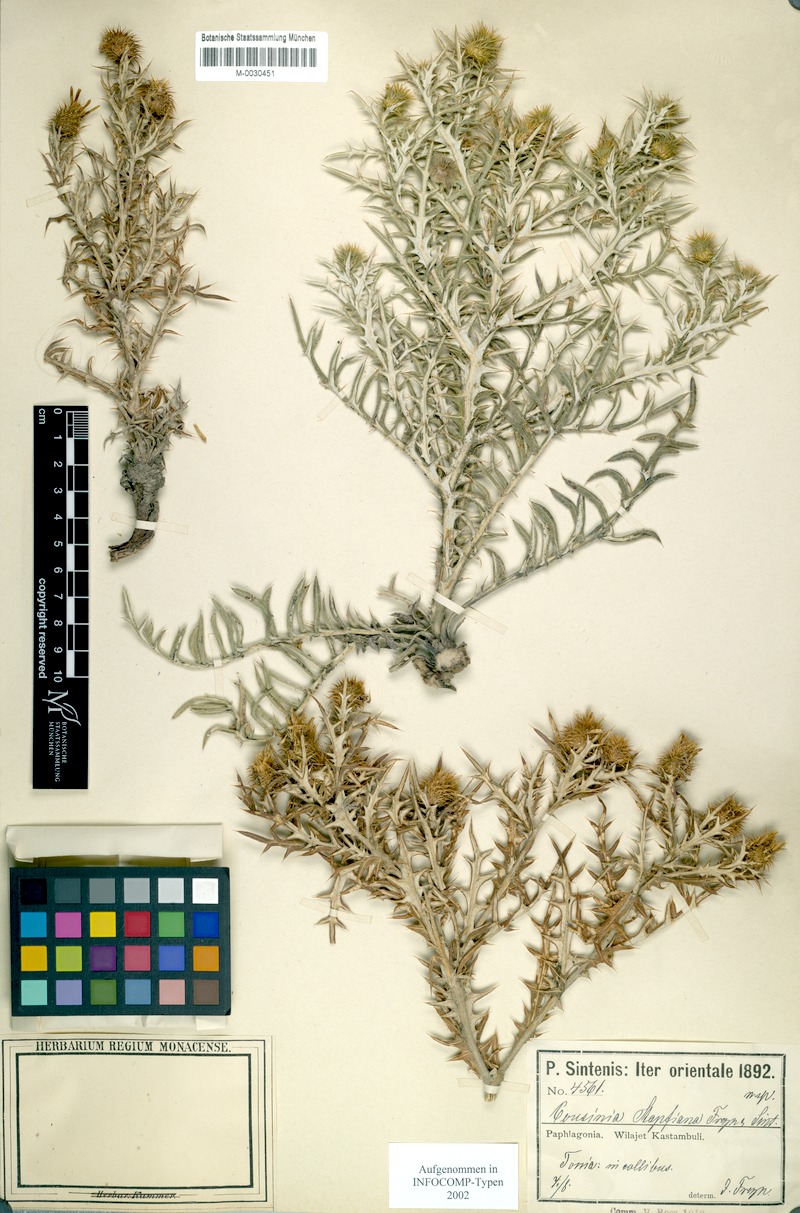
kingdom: Plantae
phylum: Tracheophyta
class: Magnoliopsida
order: Asterales
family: Asteraceae
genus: Cousinia
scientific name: Cousinia stapfiana
